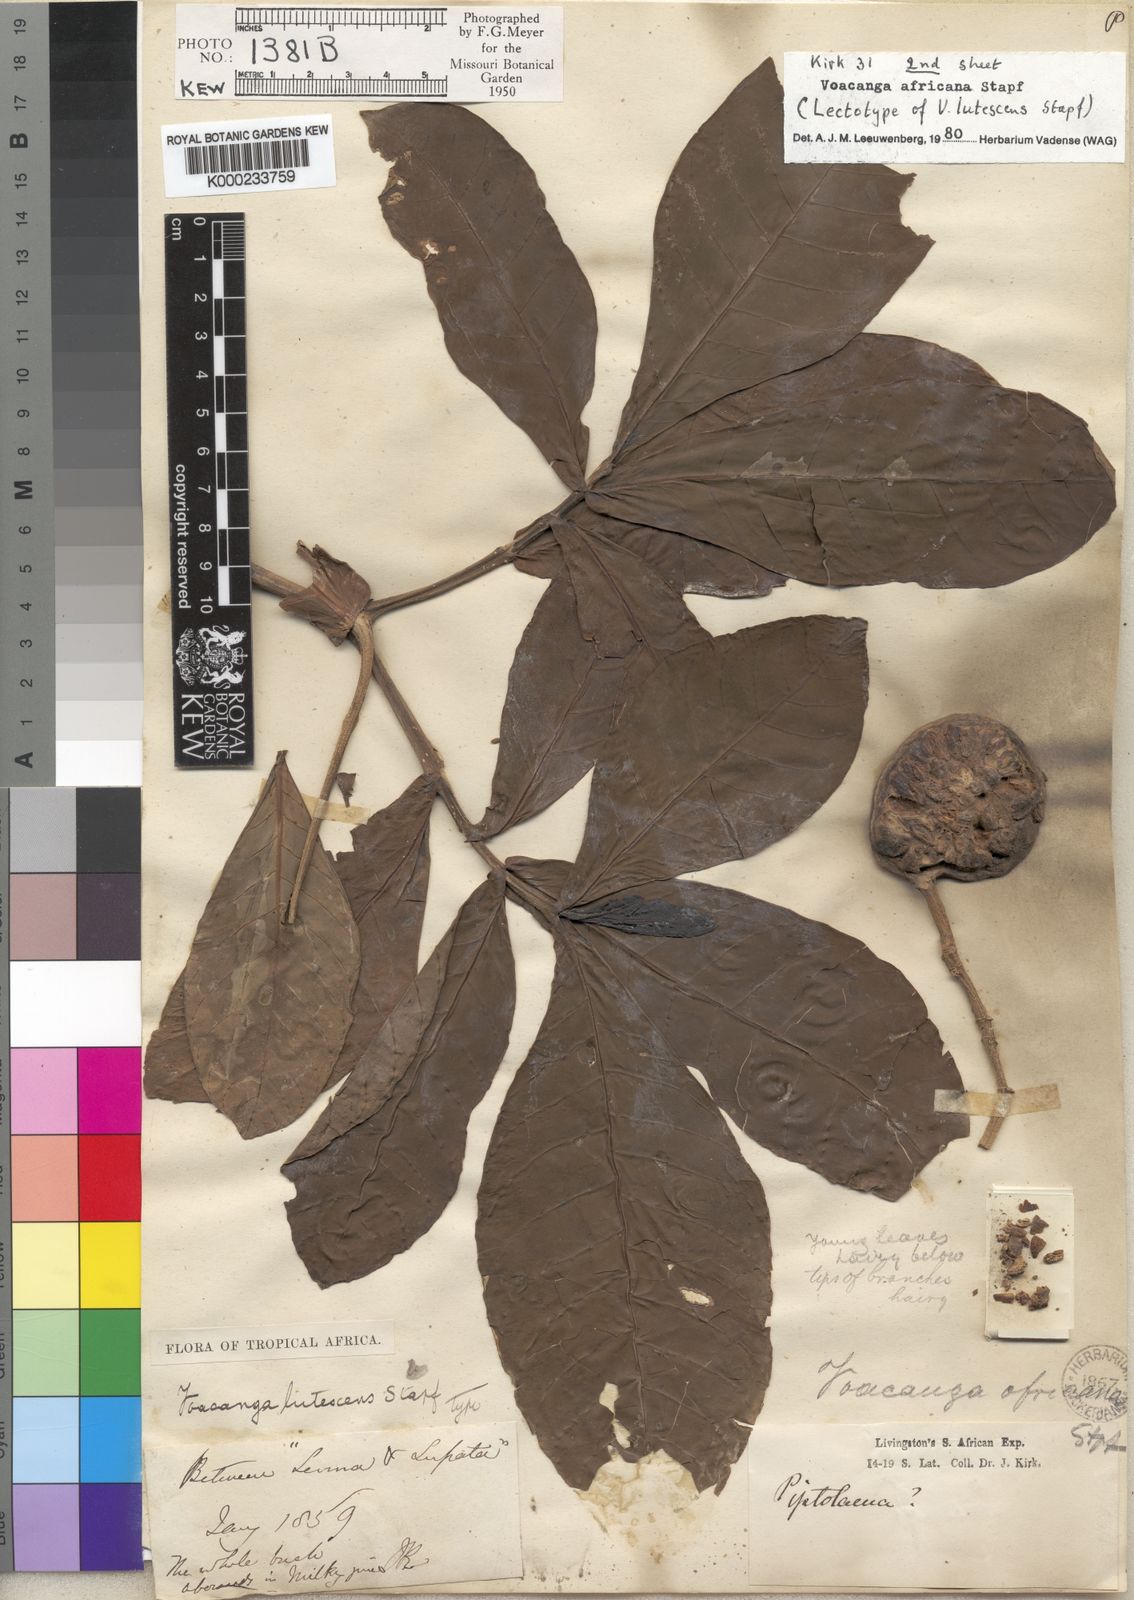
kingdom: Plantae
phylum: Tracheophyta
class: Magnoliopsida
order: Gentianales
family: Apocynaceae
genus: Voacanga
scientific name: Voacanga africana
